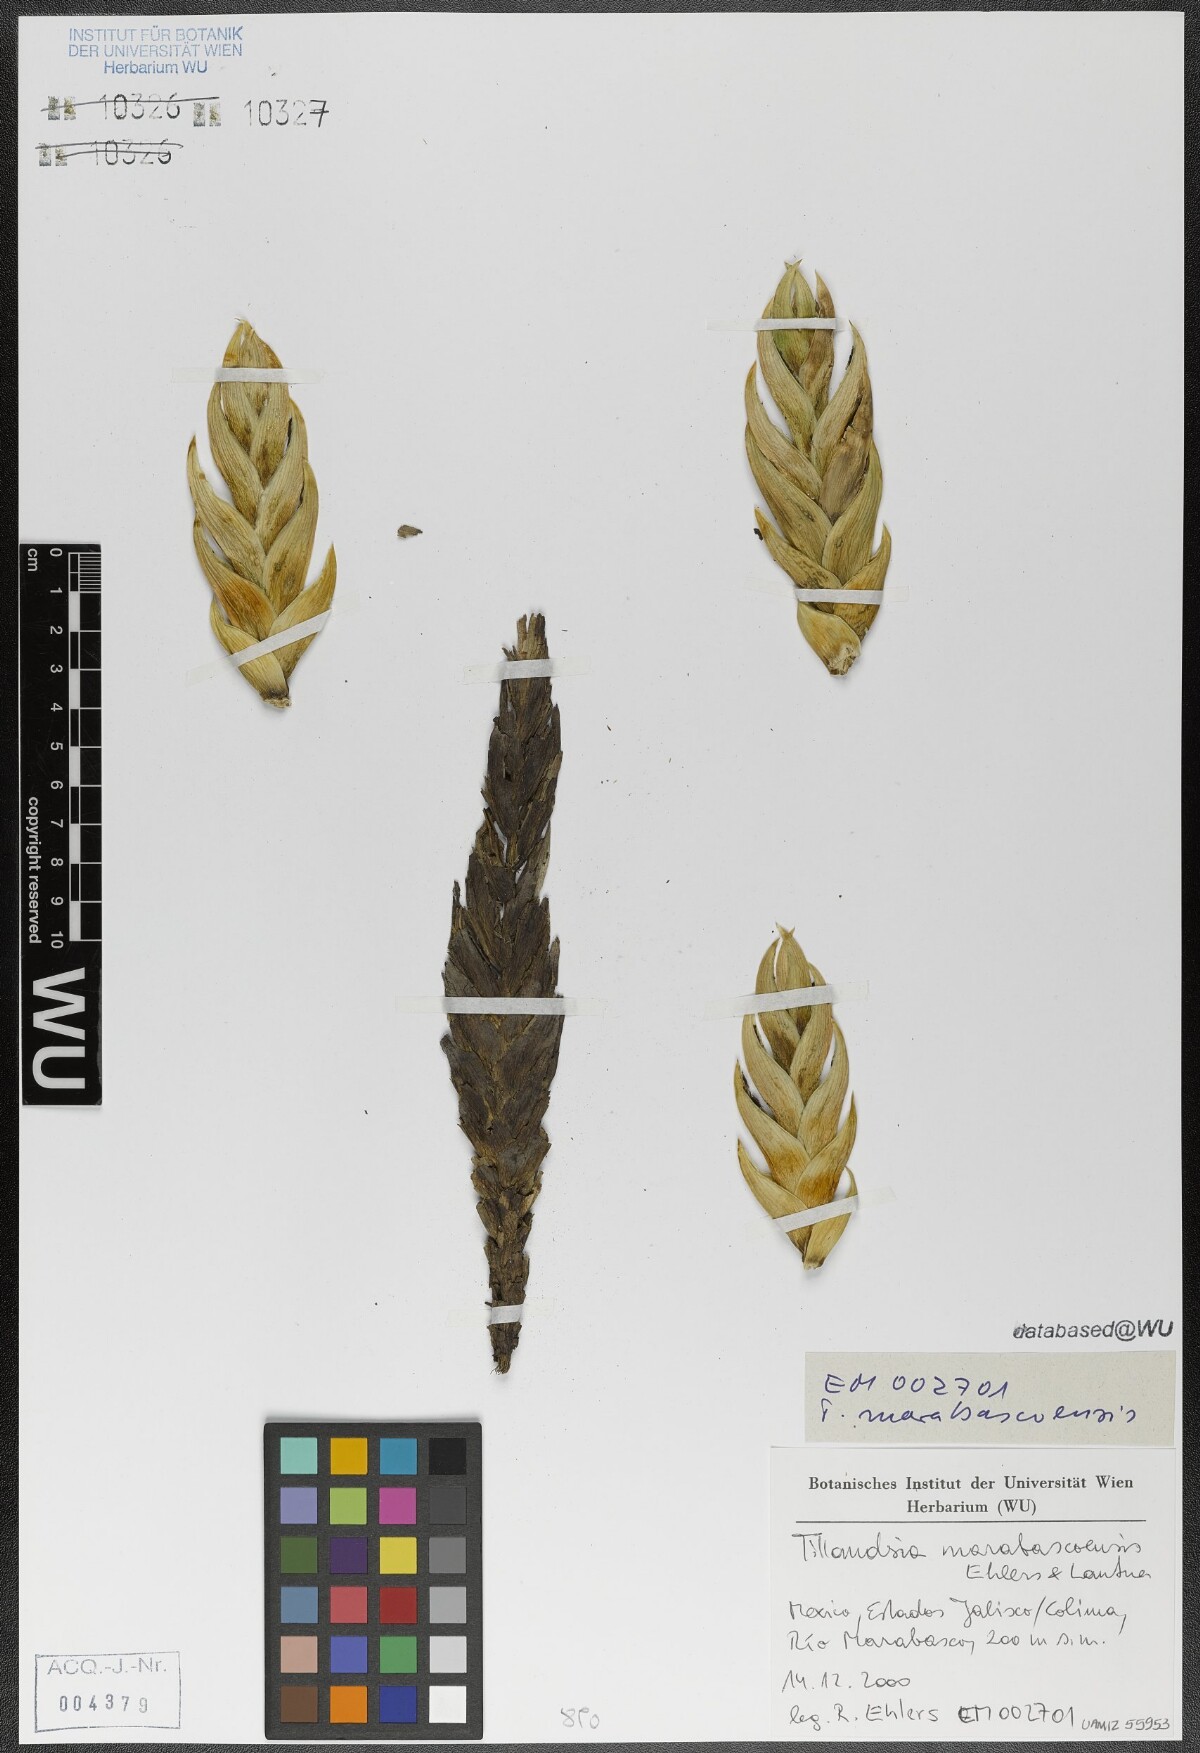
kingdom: Plantae
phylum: Tracheophyta
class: Liliopsida
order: Poales
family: Bromeliaceae
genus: Tillandsia
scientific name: Tillandsia marabascoensis
